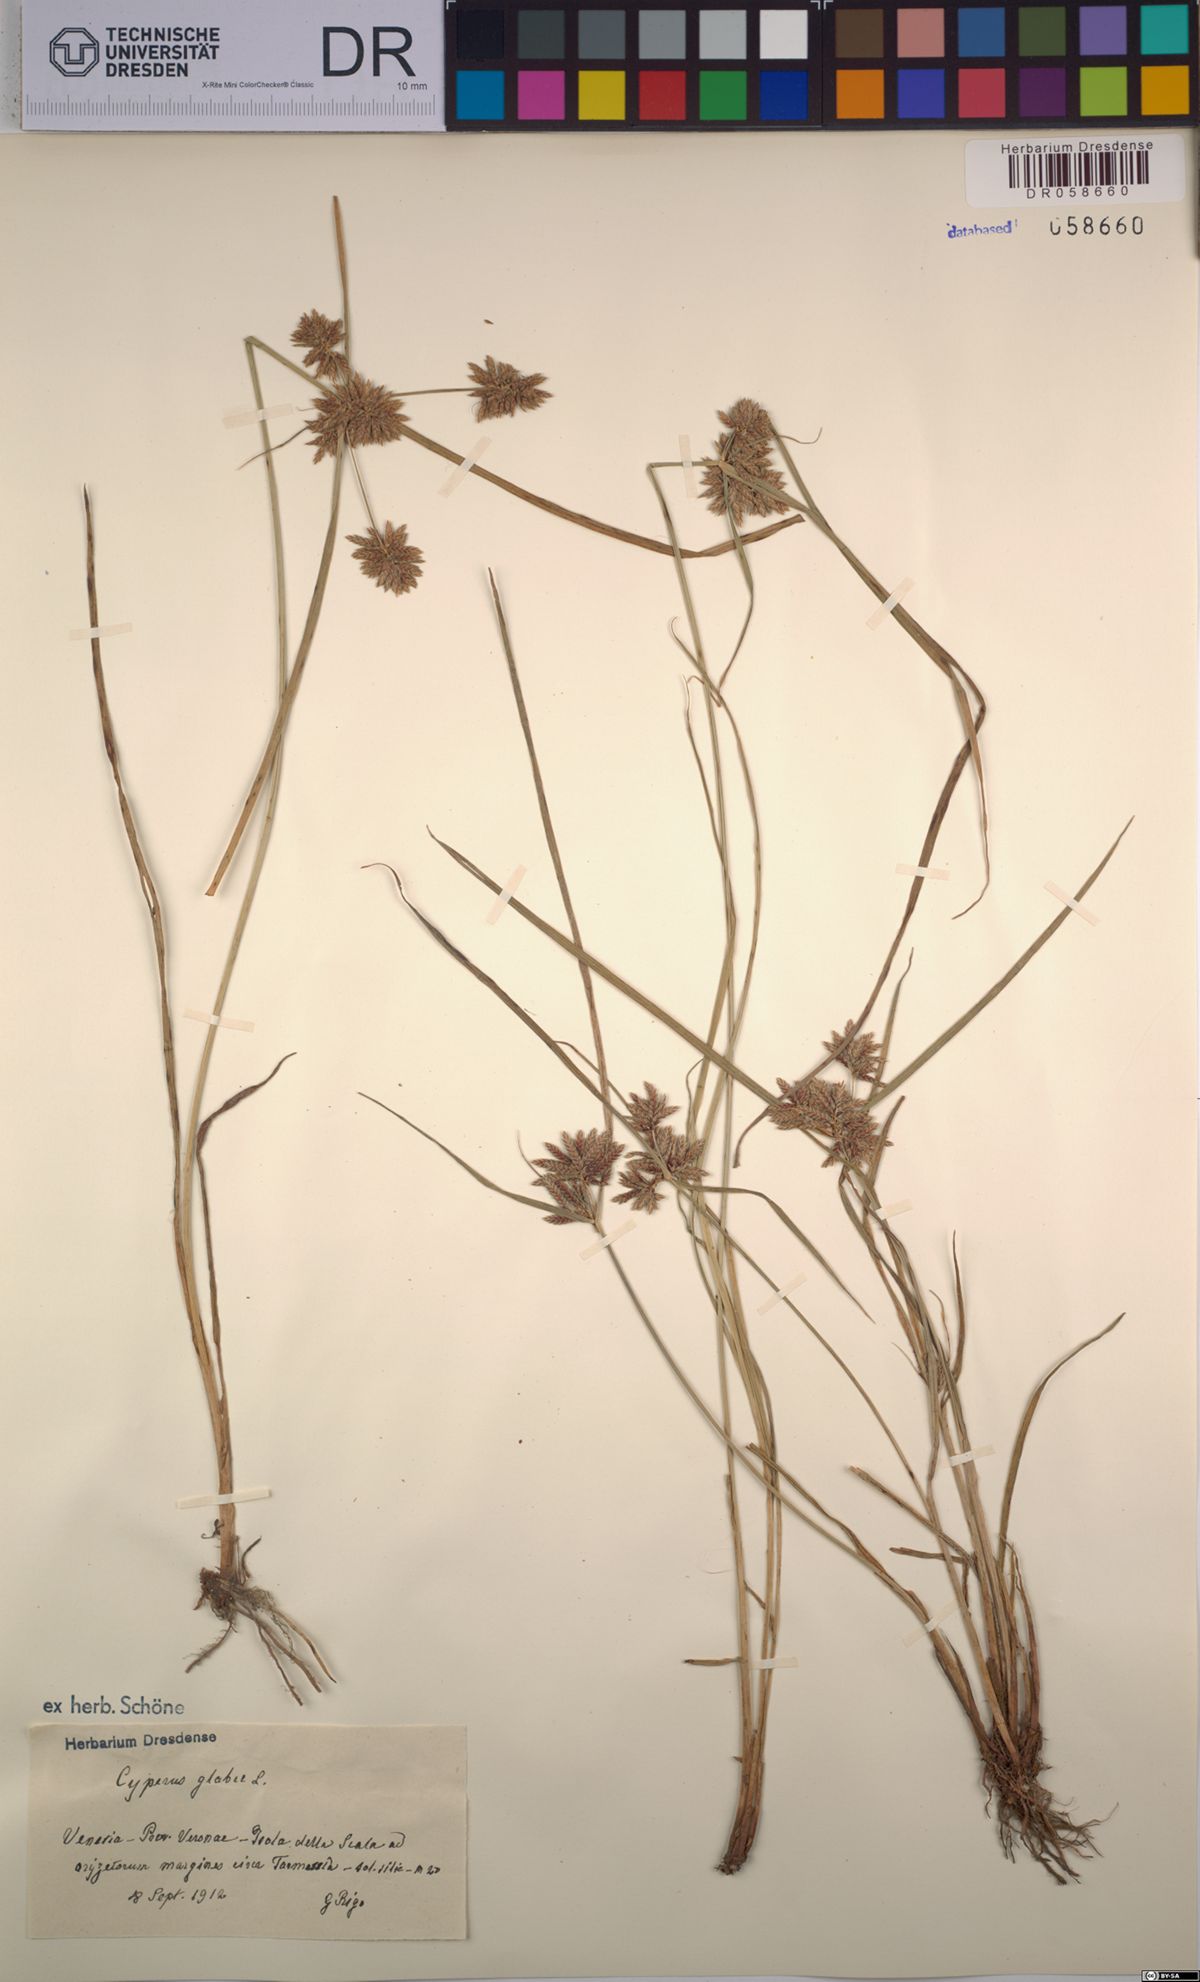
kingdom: Plantae
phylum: Tracheophyta
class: Liliopsida
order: Poales
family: Cyperaceae
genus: Cyperus
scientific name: Cyperus glaber
